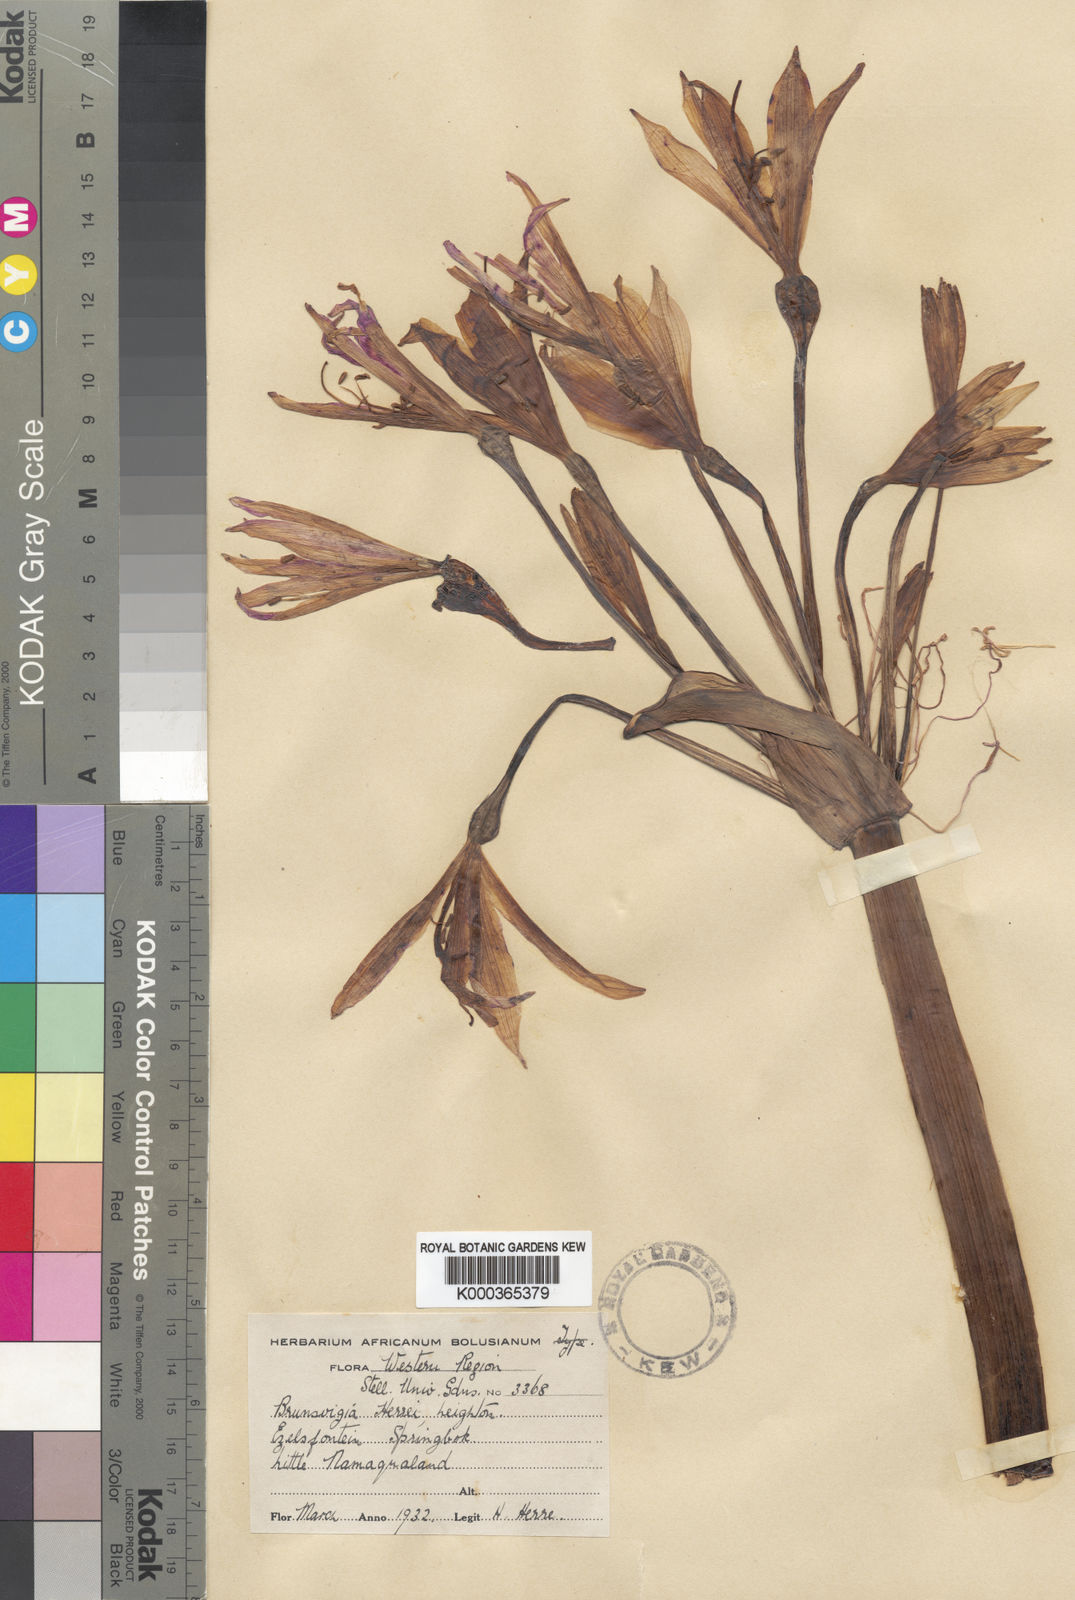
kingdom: Plantae
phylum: Tracheophyta
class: Liliopsida
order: Asparagales
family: Amaryllidaceae
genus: Brunsvigia
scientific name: Brunsvigia herrei
